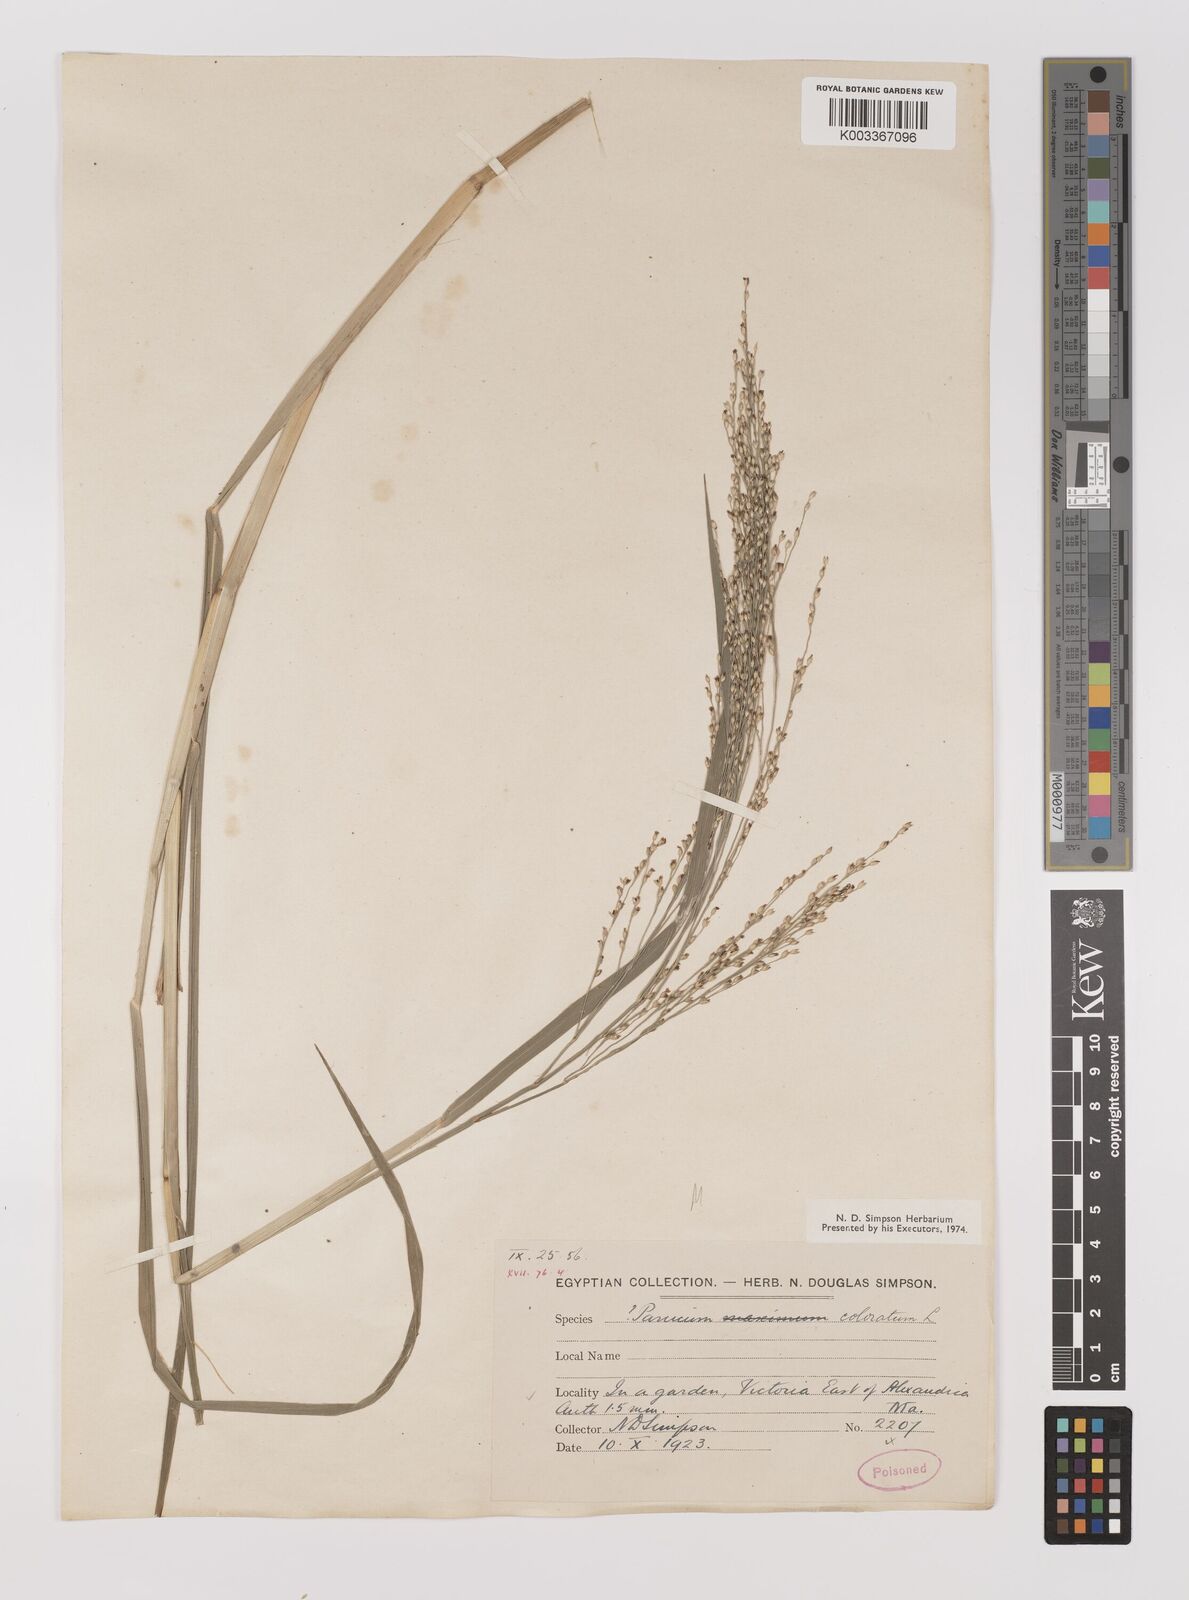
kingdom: Plantae
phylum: Tracheophyta
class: Liliopsida
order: Poales
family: Poaceae
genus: Panicum
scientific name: Panicum coloratum
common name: Kleingrass
